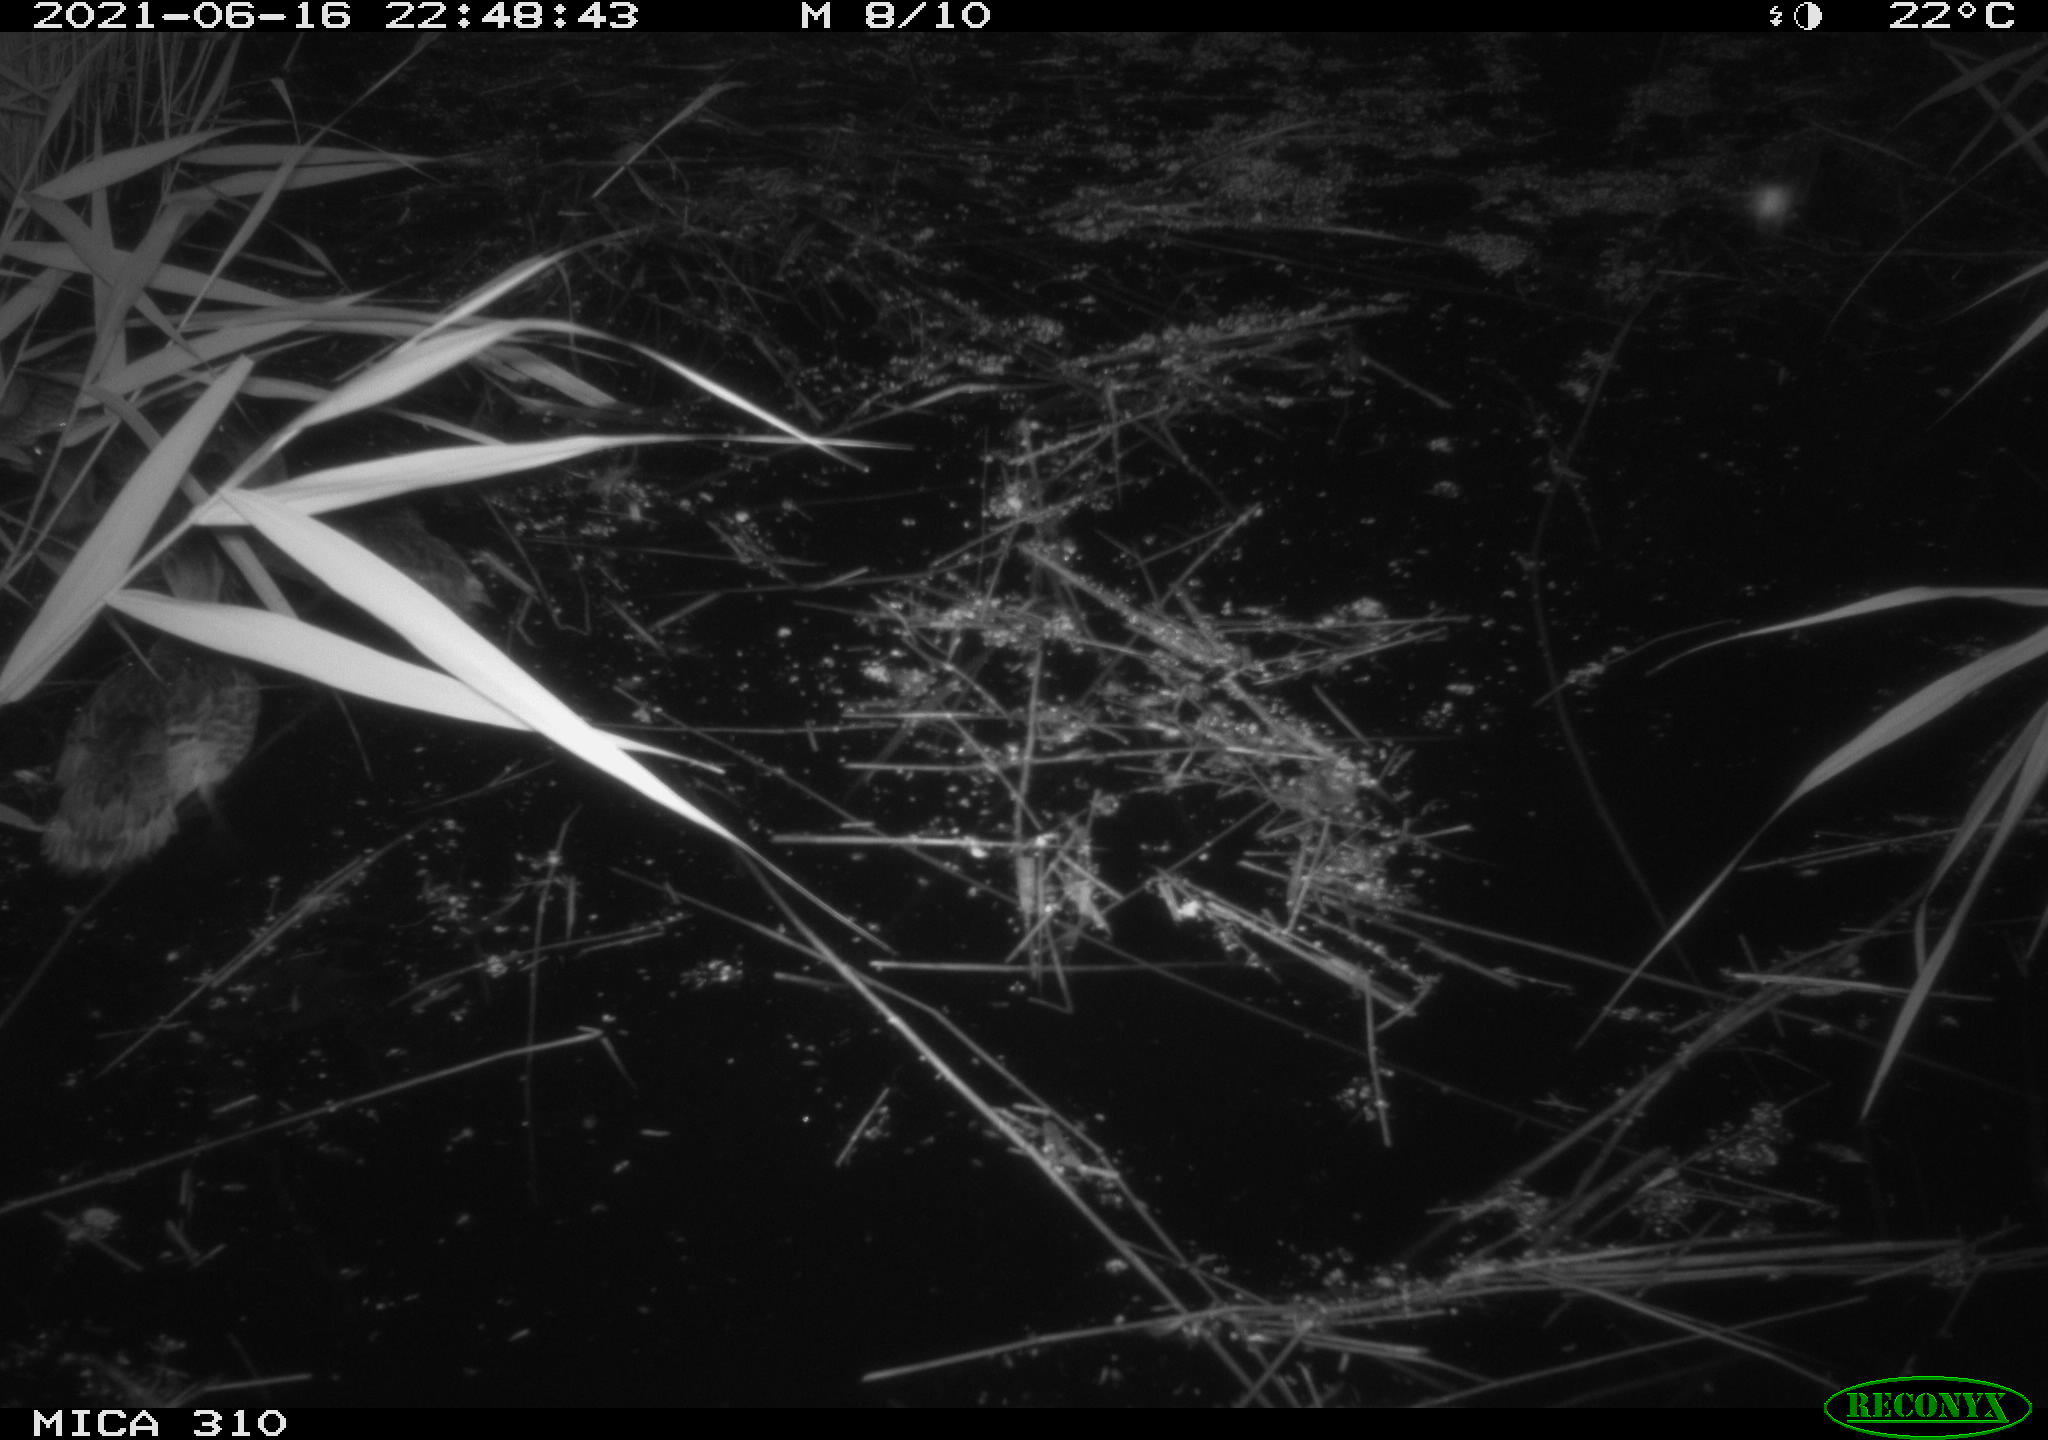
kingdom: Animalia
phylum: Chordata
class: Aves
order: Anseriformes
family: Anatidae
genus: Anas
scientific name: Anas
